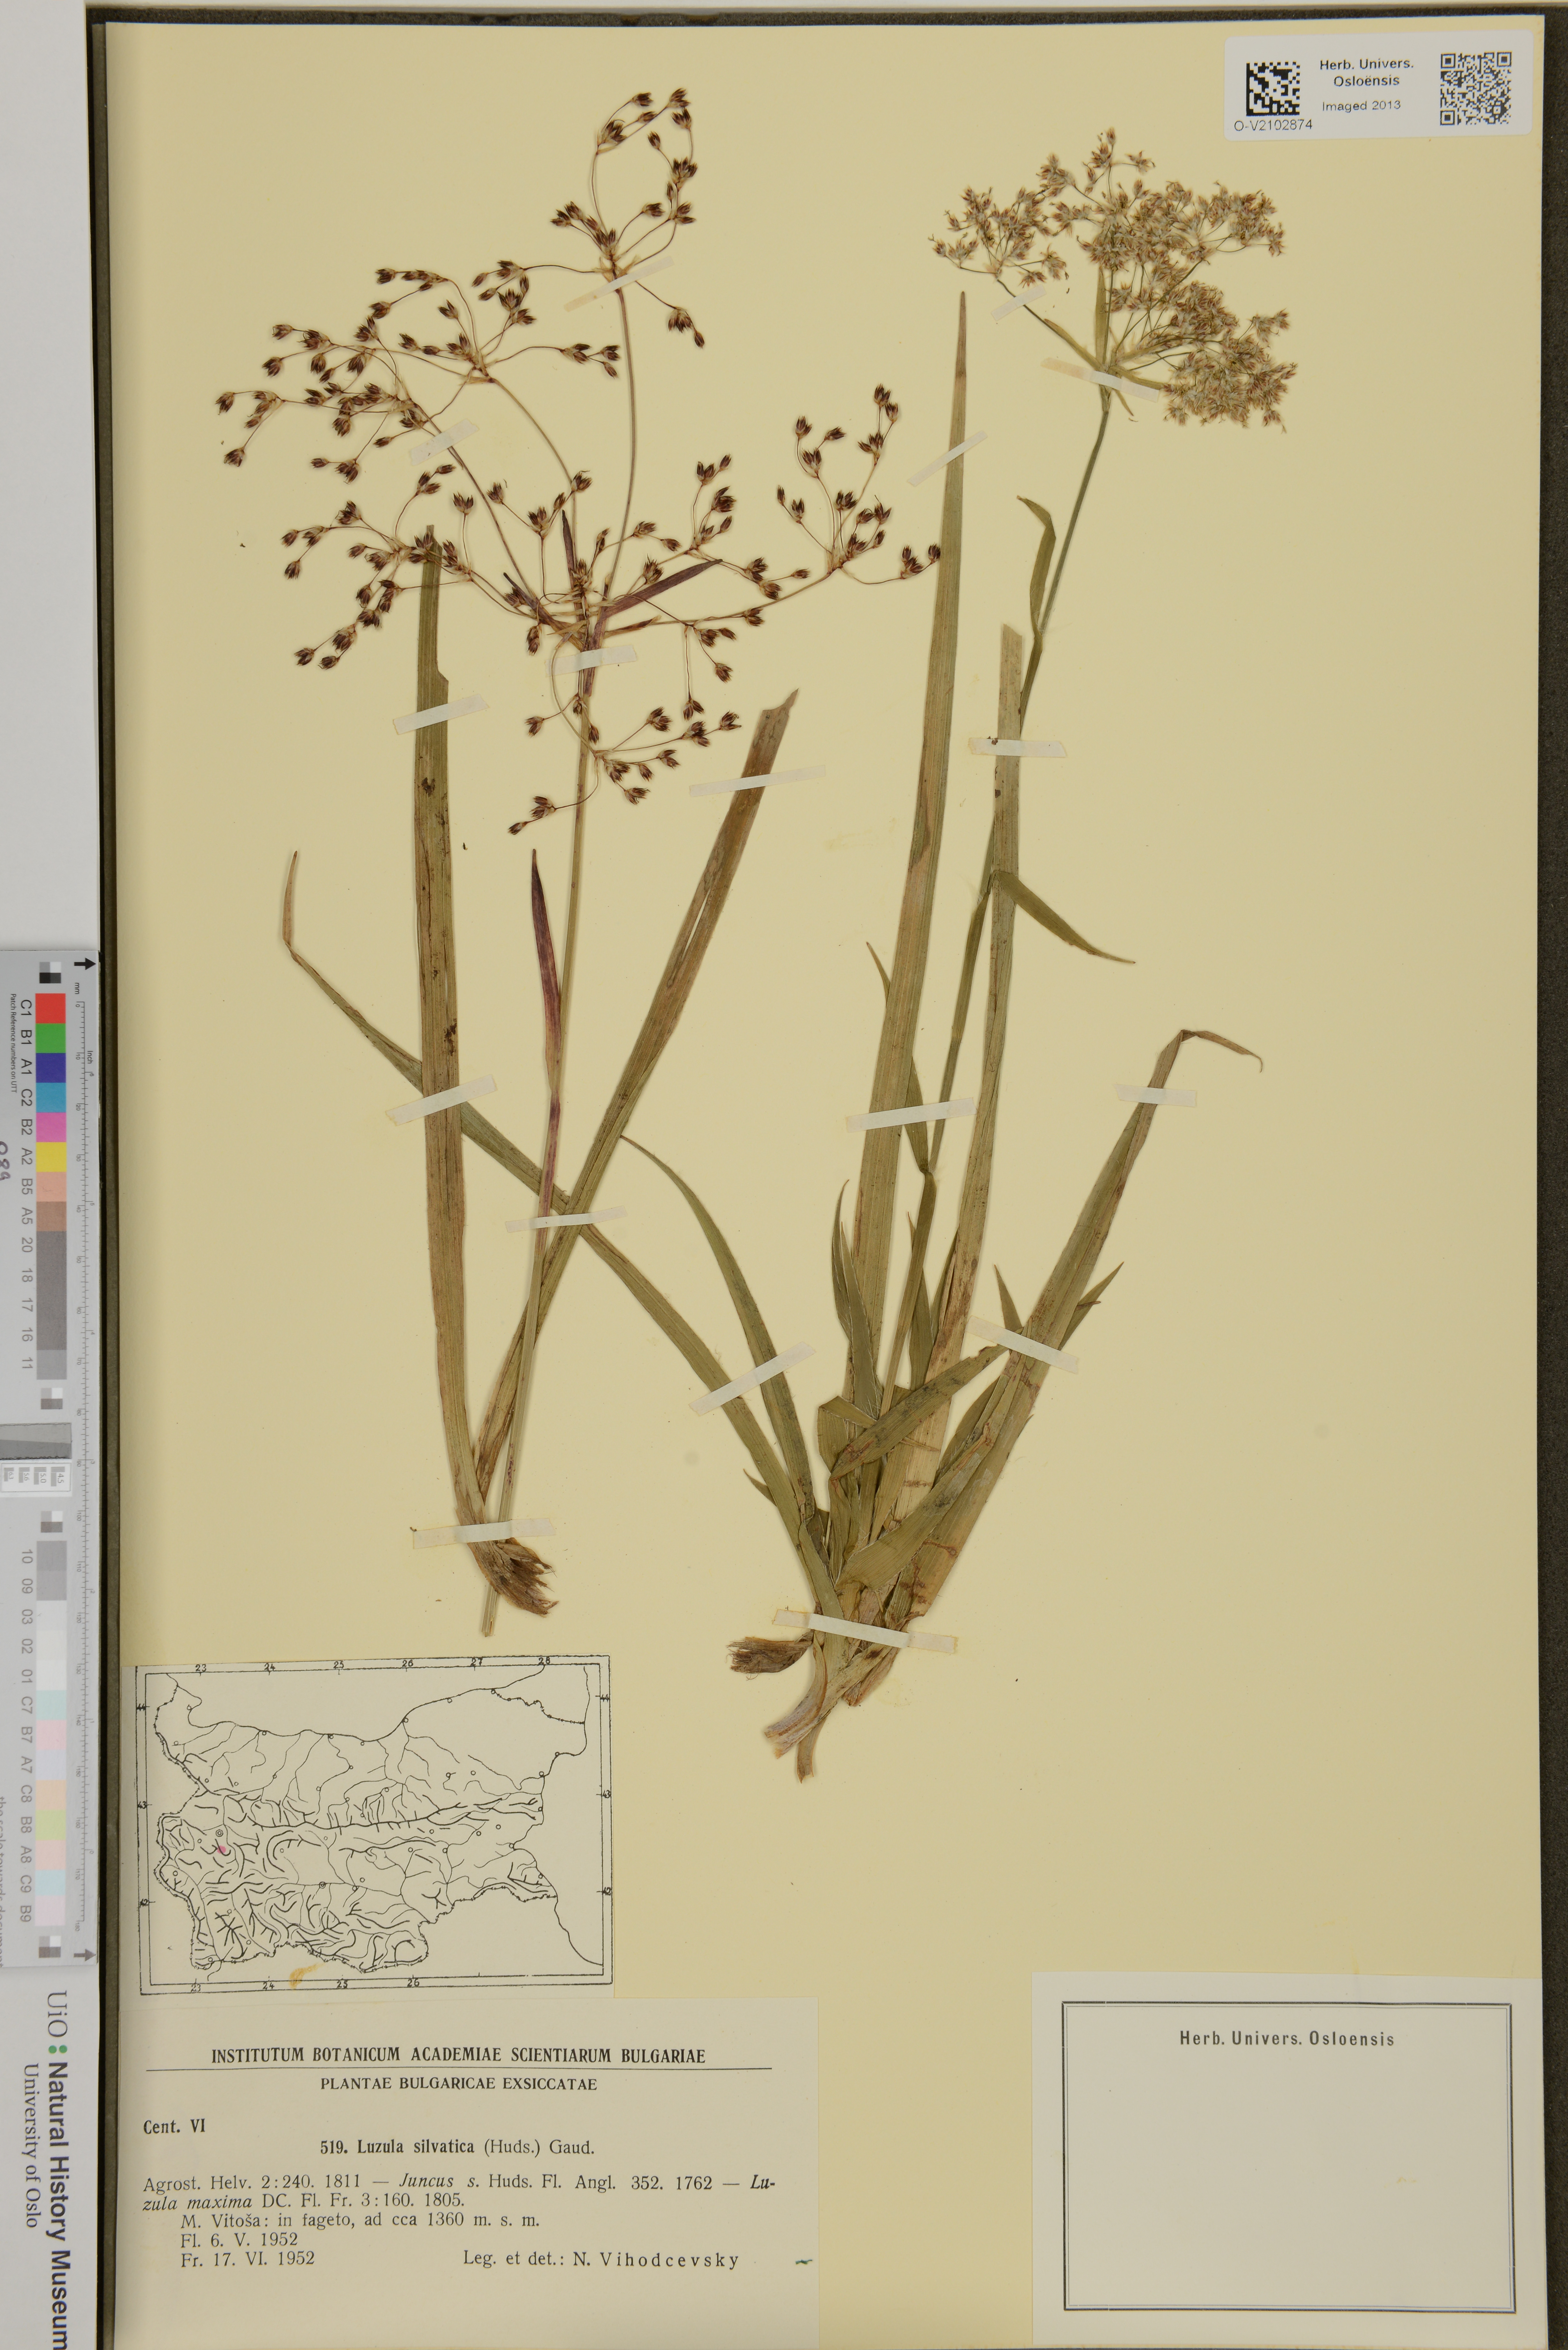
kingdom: Plantae
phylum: Tracheophyta
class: Liliopsida
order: Poales
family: Juncaceae
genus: Luzula
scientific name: Luzula sylvatica
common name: Great wood-rush
